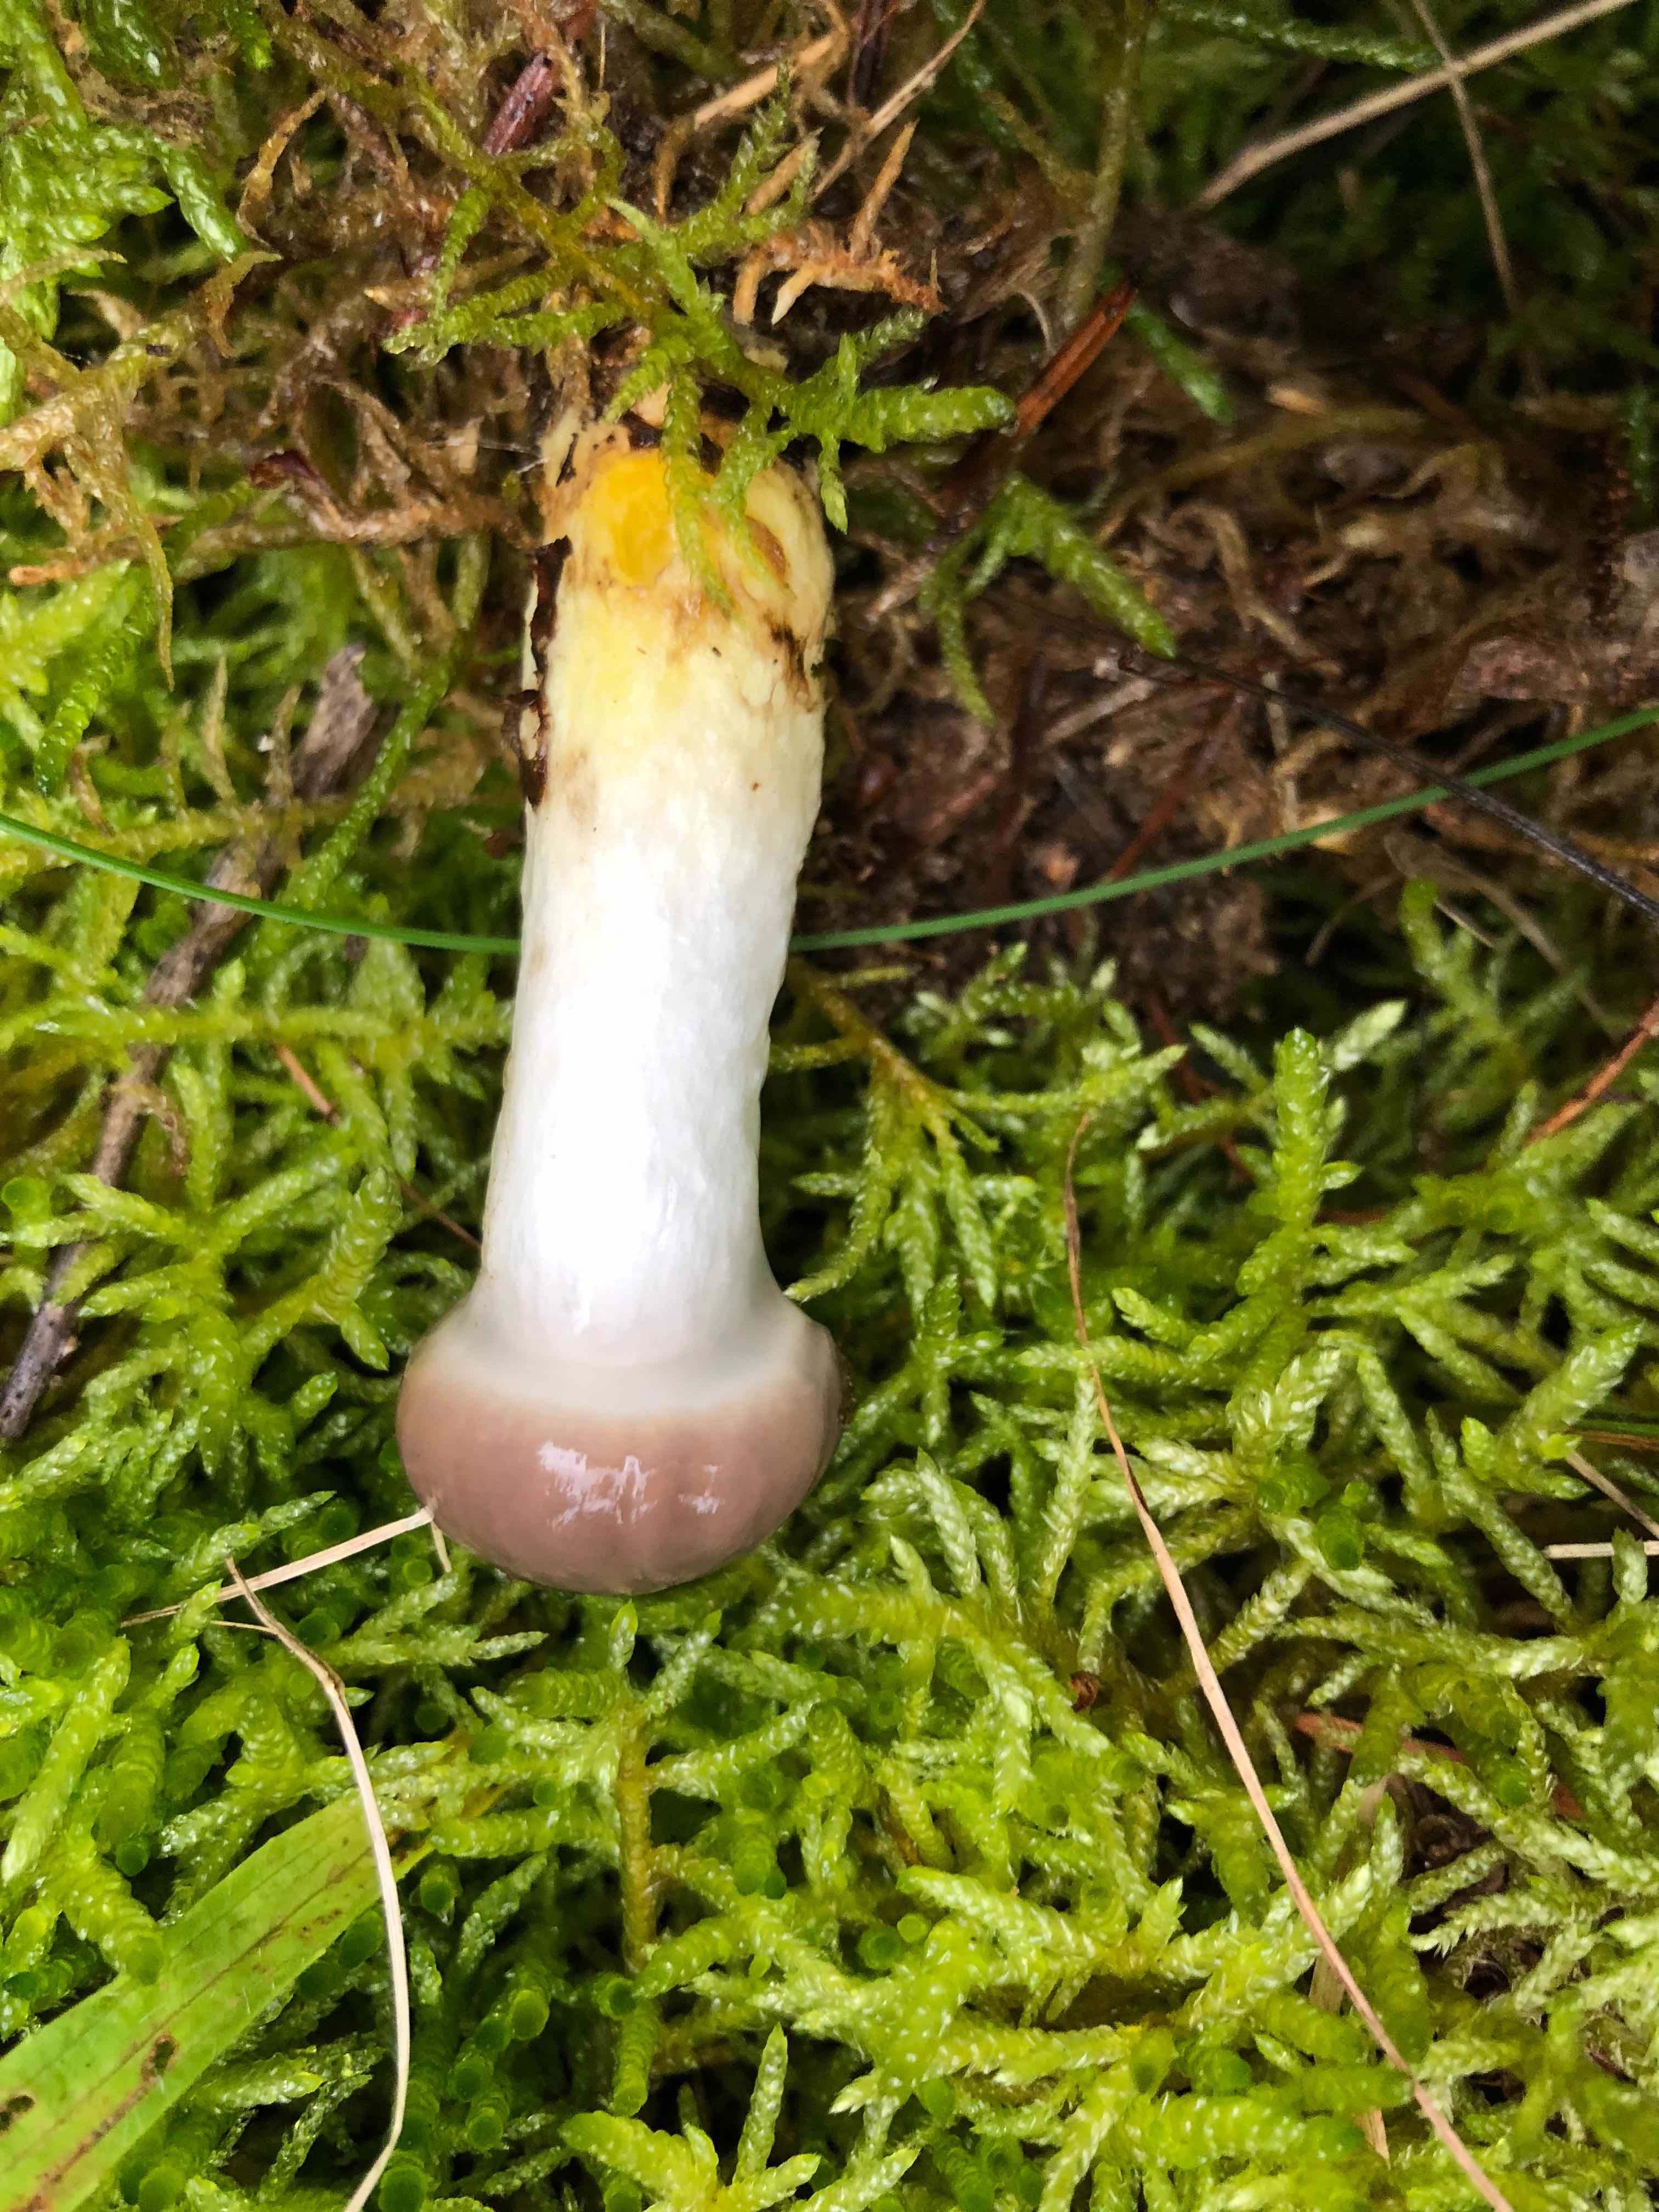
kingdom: Fungi
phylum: Basidiomycota
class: Agaricomycetes
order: Boletales
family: Gomphidiaceae
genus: Gomphidius
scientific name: Gomphidius glutinosus
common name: grå slimslør
